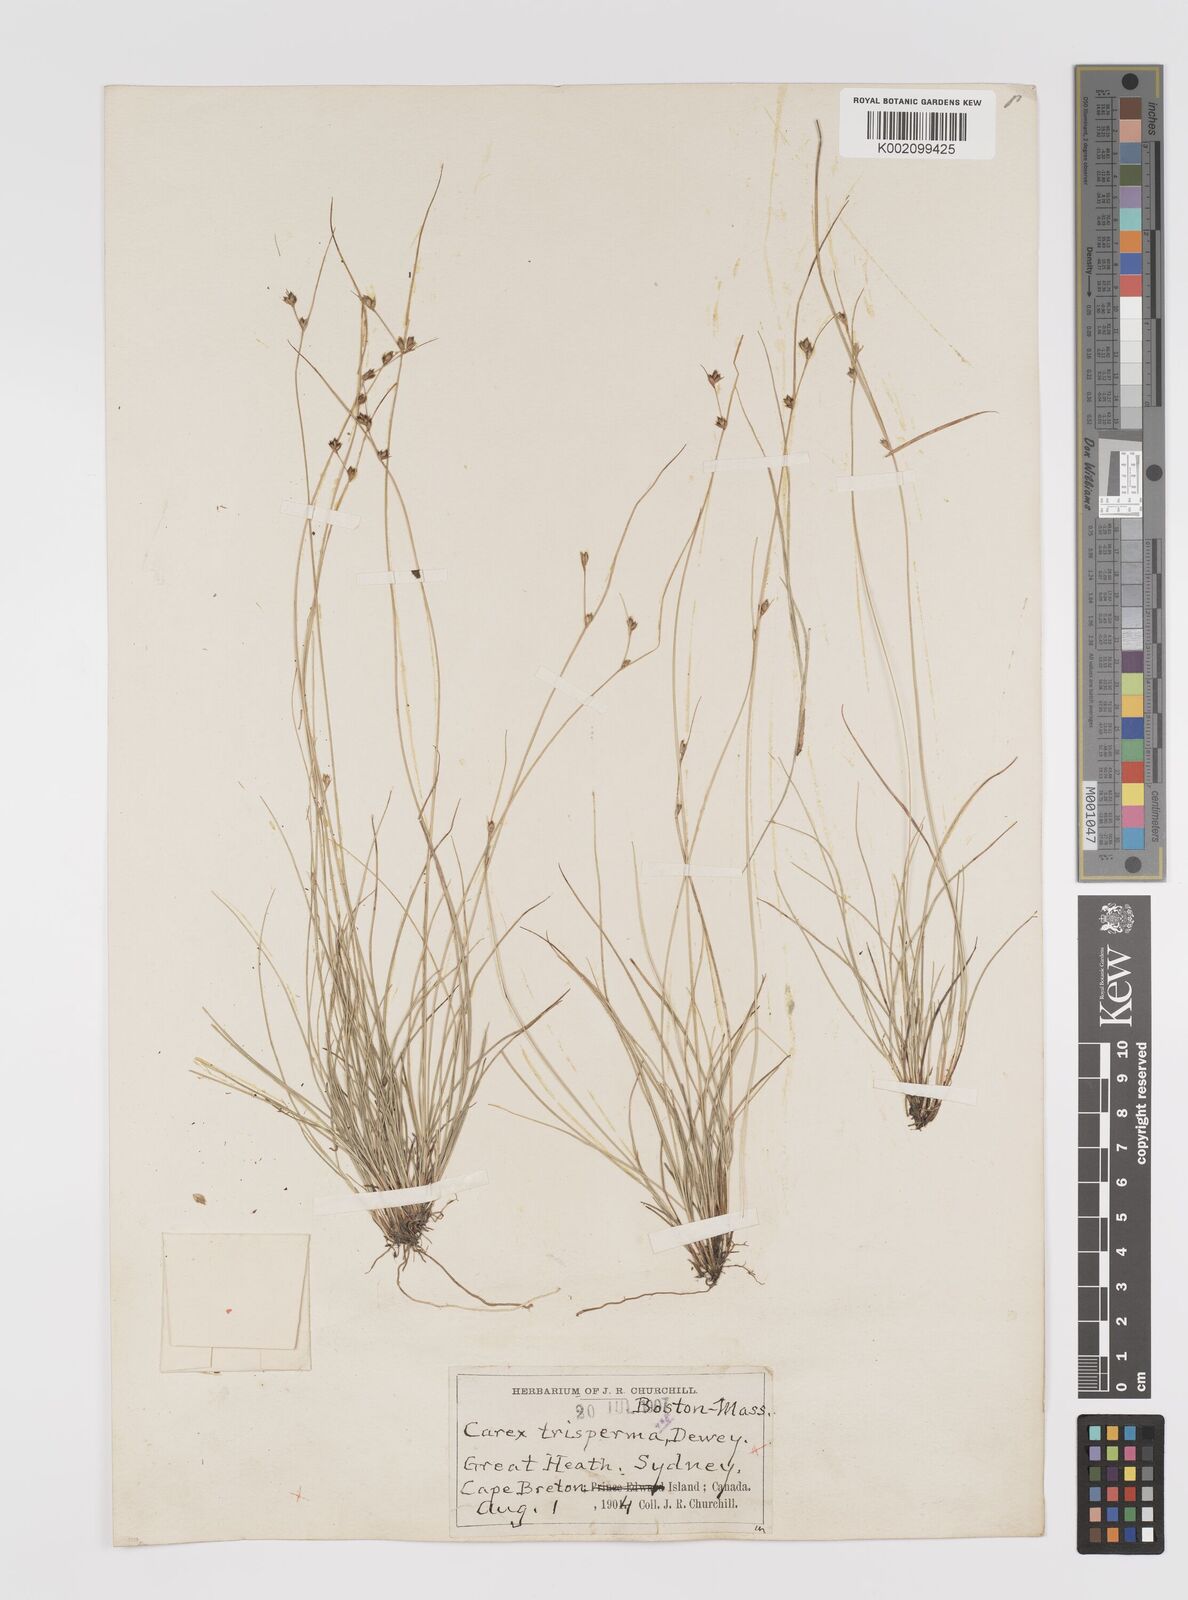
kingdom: Plantae
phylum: Tracheophyta
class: Liliopsida
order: Poales
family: Cyperaceae
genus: Carex
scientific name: Carex trisperma
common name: Three-seeded sedge
